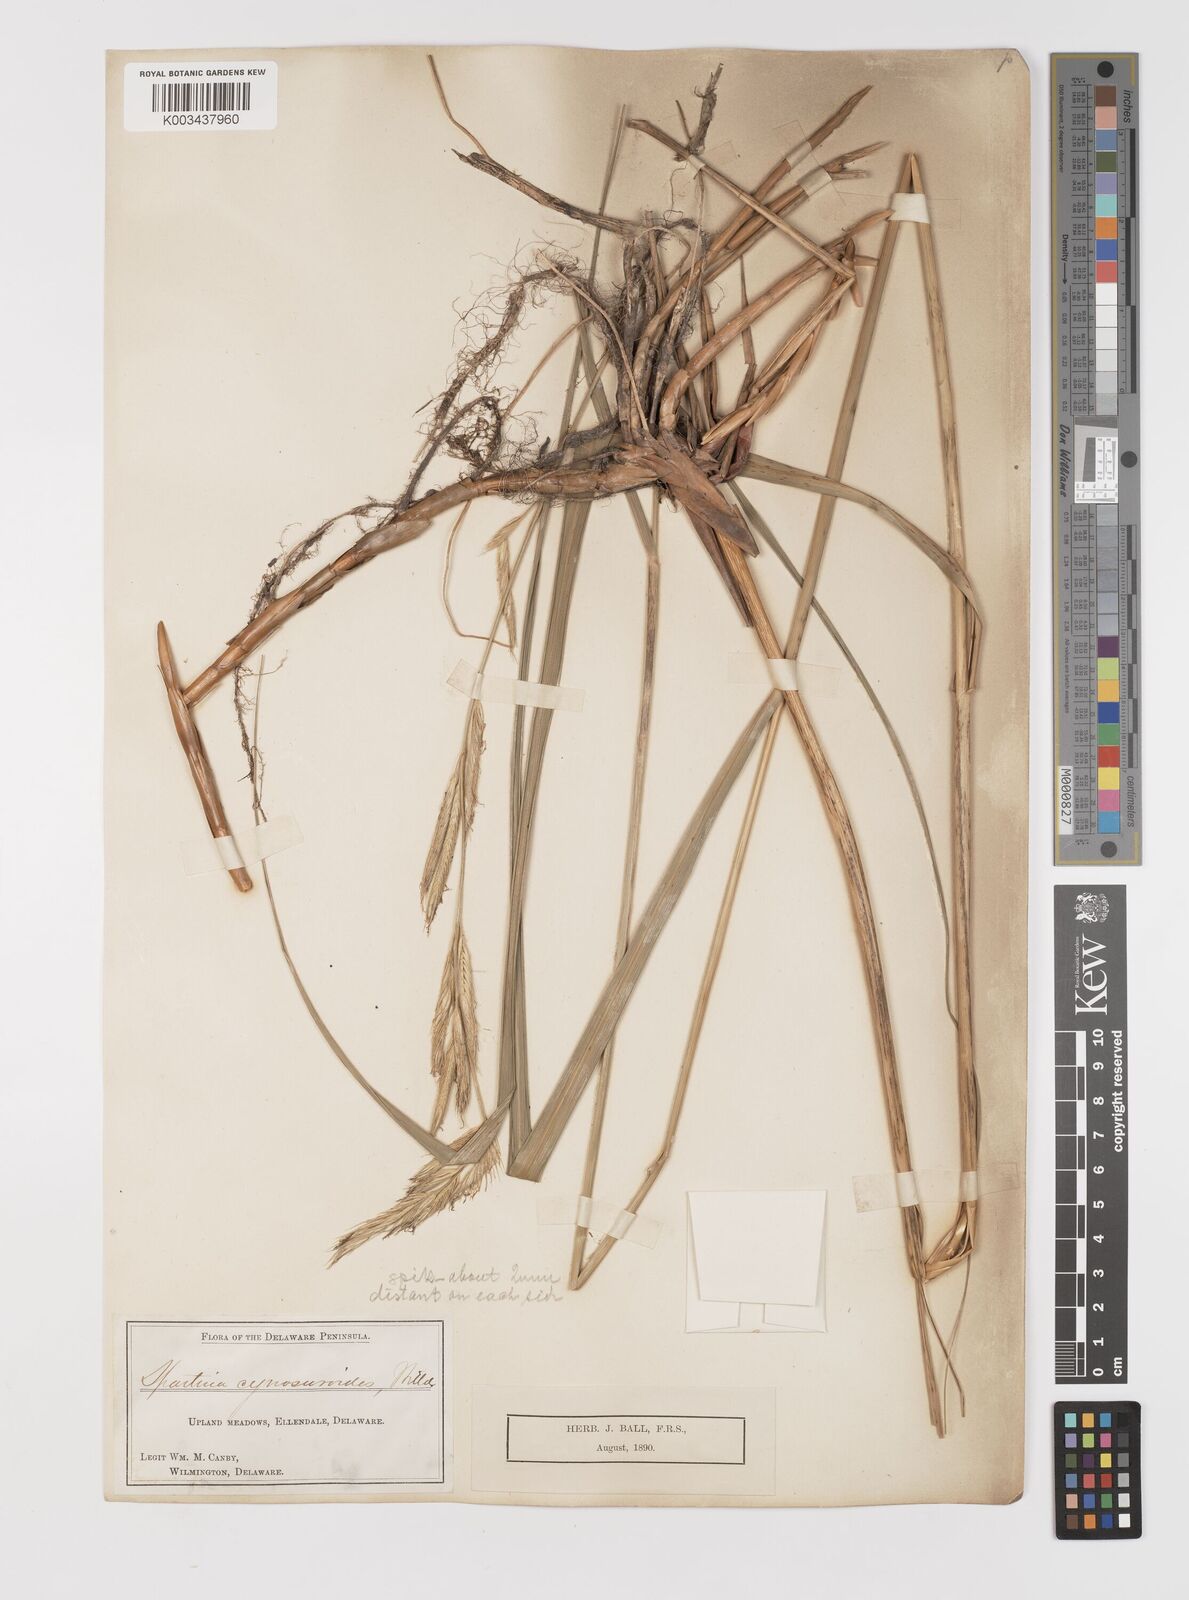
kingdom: Plantae
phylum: Tracheophyta
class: Liliopsida
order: Poales
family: Poaceae
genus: Sporobolus
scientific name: Sporobolus michauxianus
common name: Freshwater cordgrass
